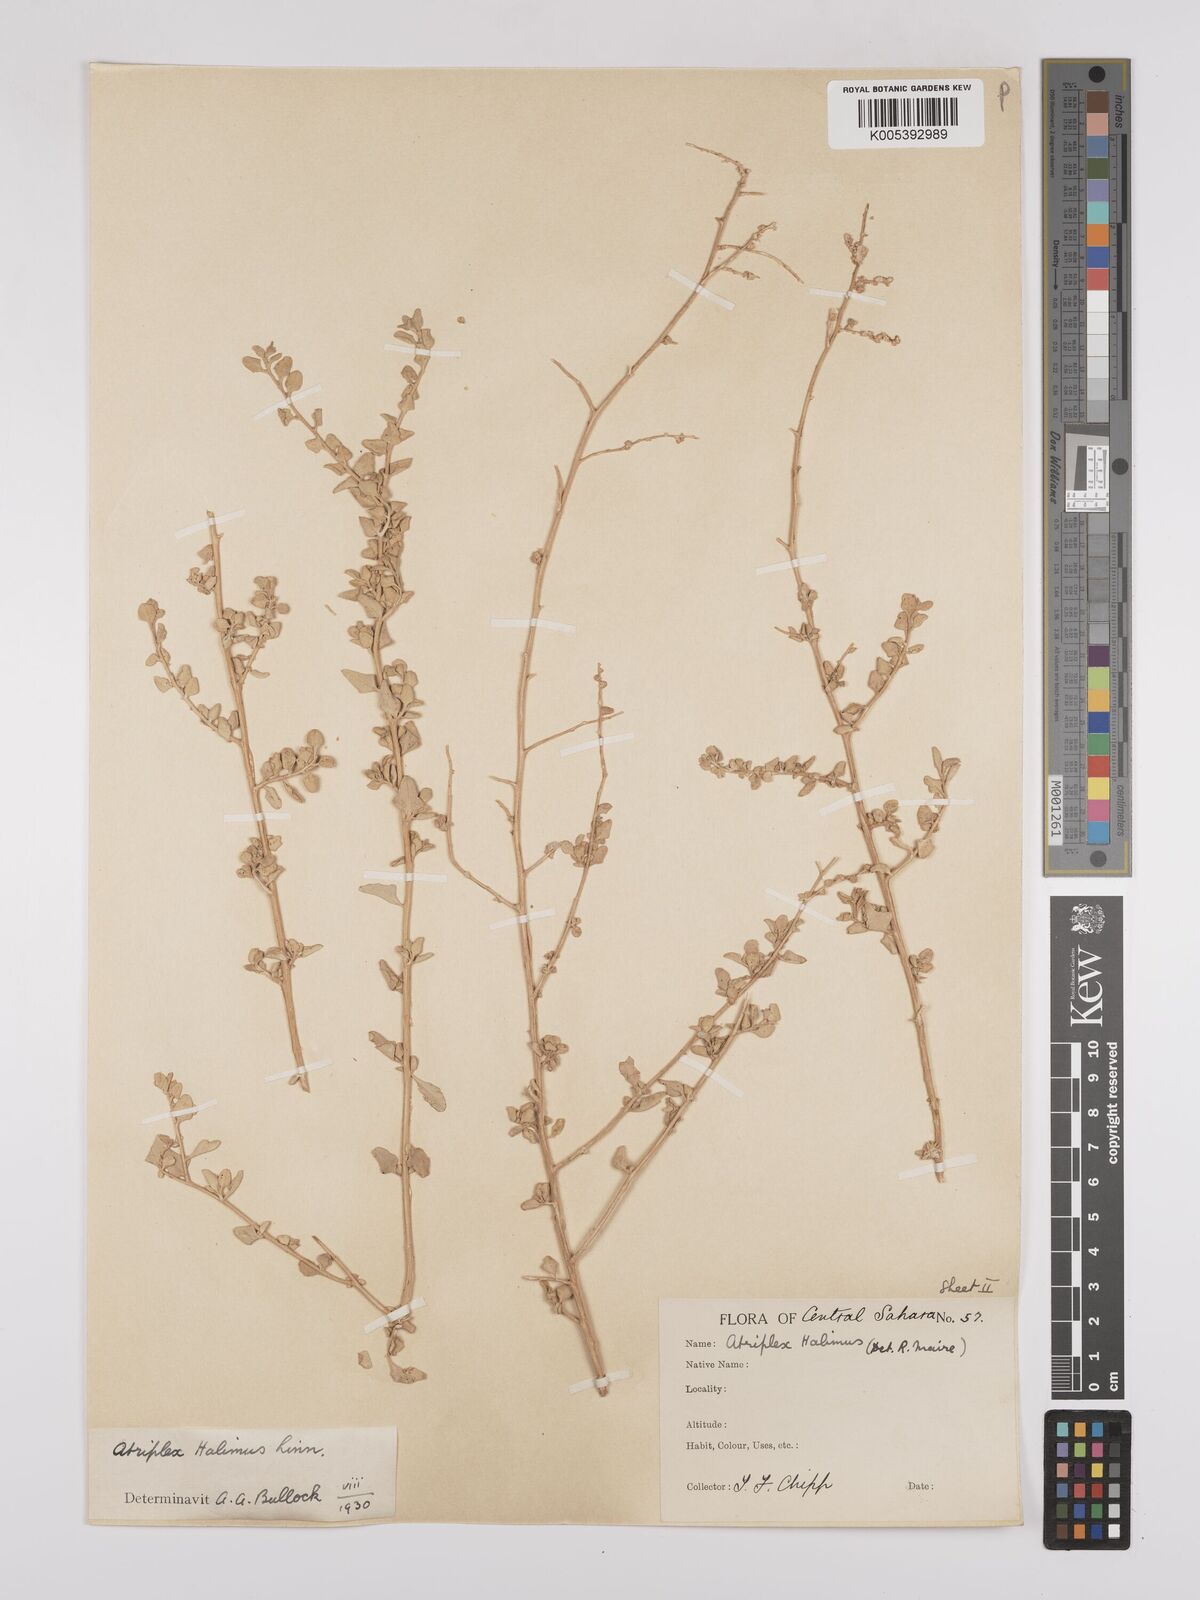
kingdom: Plantae
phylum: Tracheophyta
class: Magnoliopsida
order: Caryophyllales
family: Amaranthaceae
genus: Atriplex
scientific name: Atriplex
